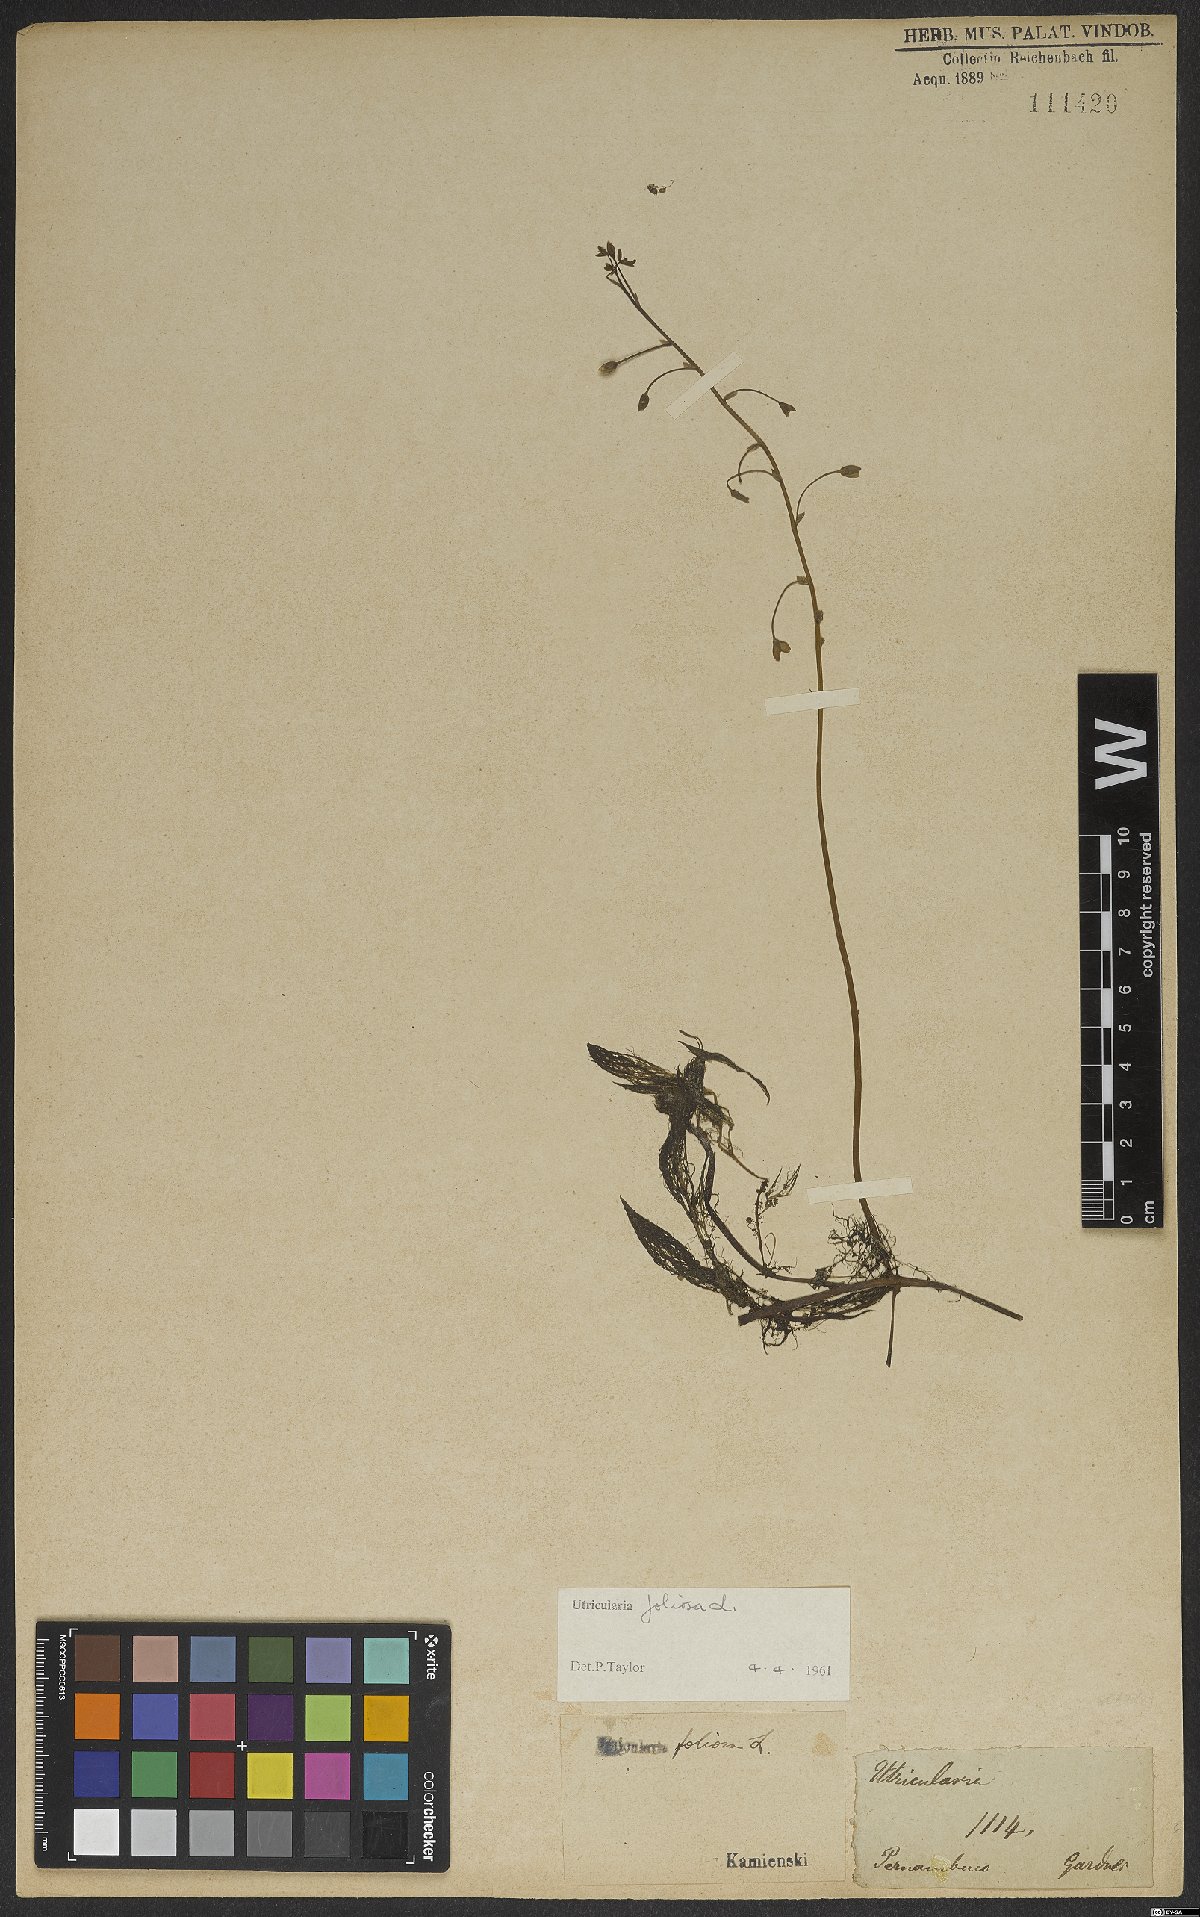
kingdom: Plantae
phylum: Tracheophyta
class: Magnoliopsida
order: Lamiales
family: Lentibulariaceae
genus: Utricularia
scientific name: Utricularia foliosa
